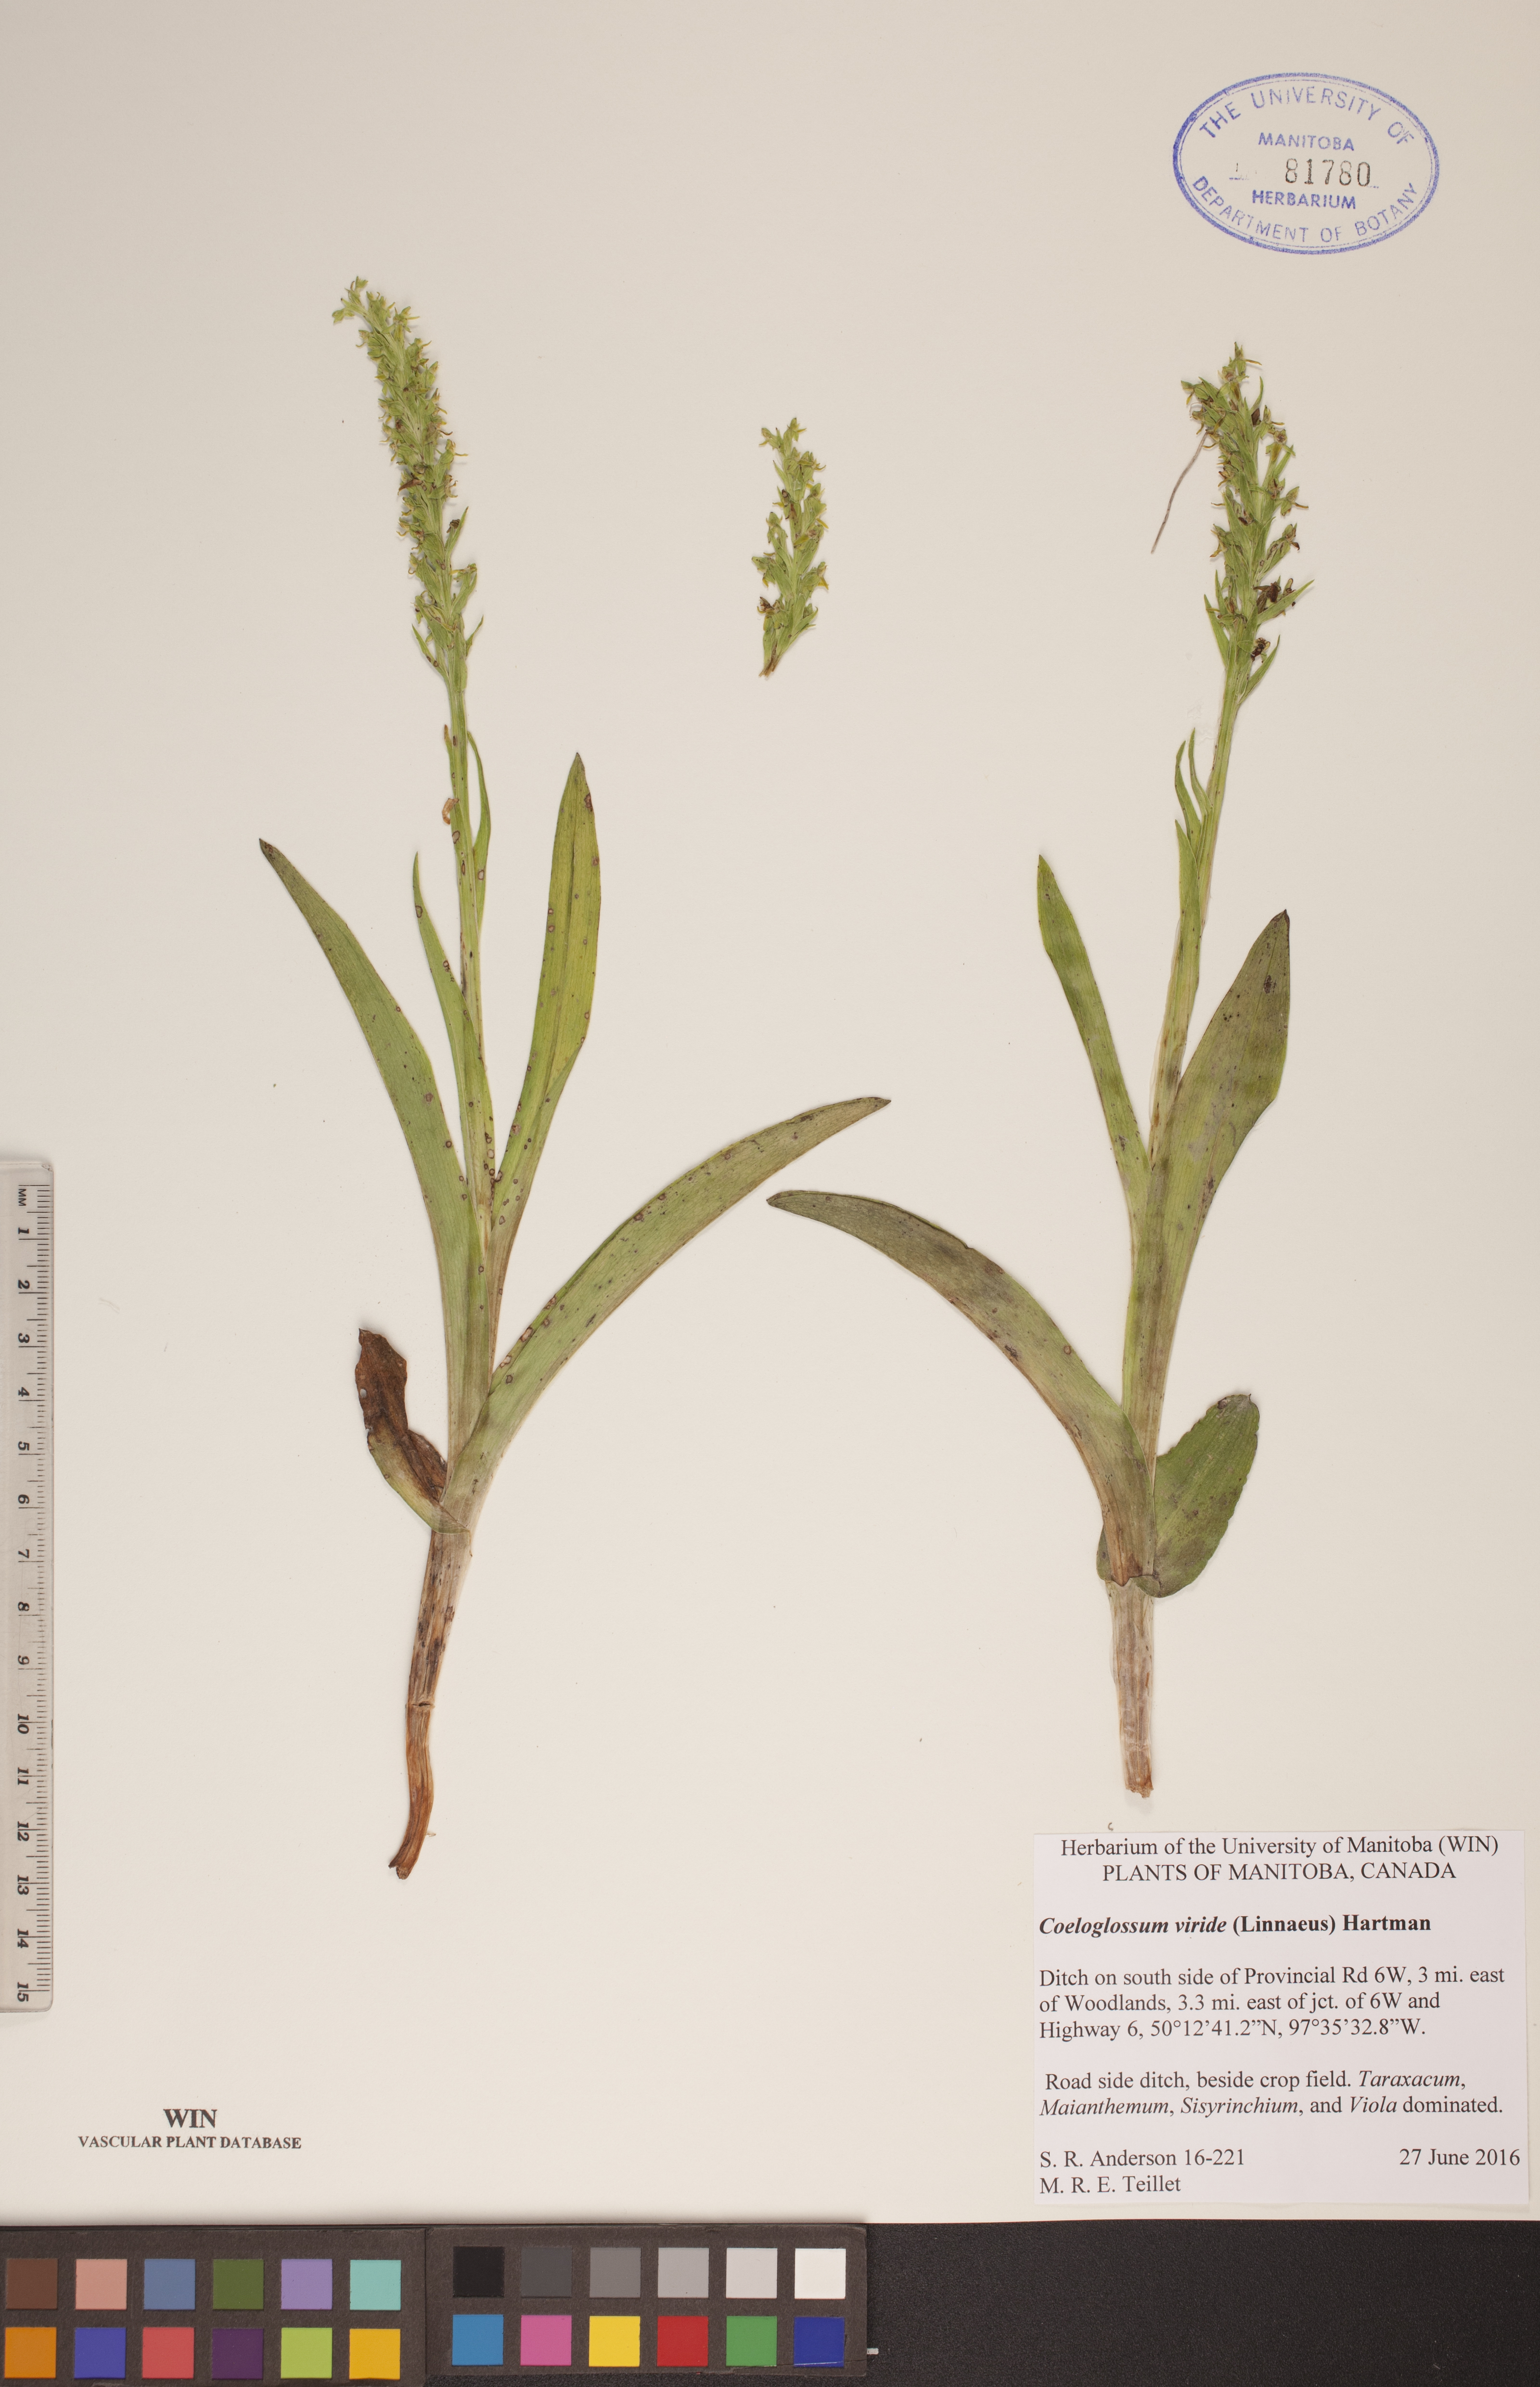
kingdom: Plantae
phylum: Tracheophyta
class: Liliopsida
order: Asparagales
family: Orchidaceae
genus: Dactylorhiza
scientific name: Dactylorhiza viridis
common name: Longbract frog orchid
